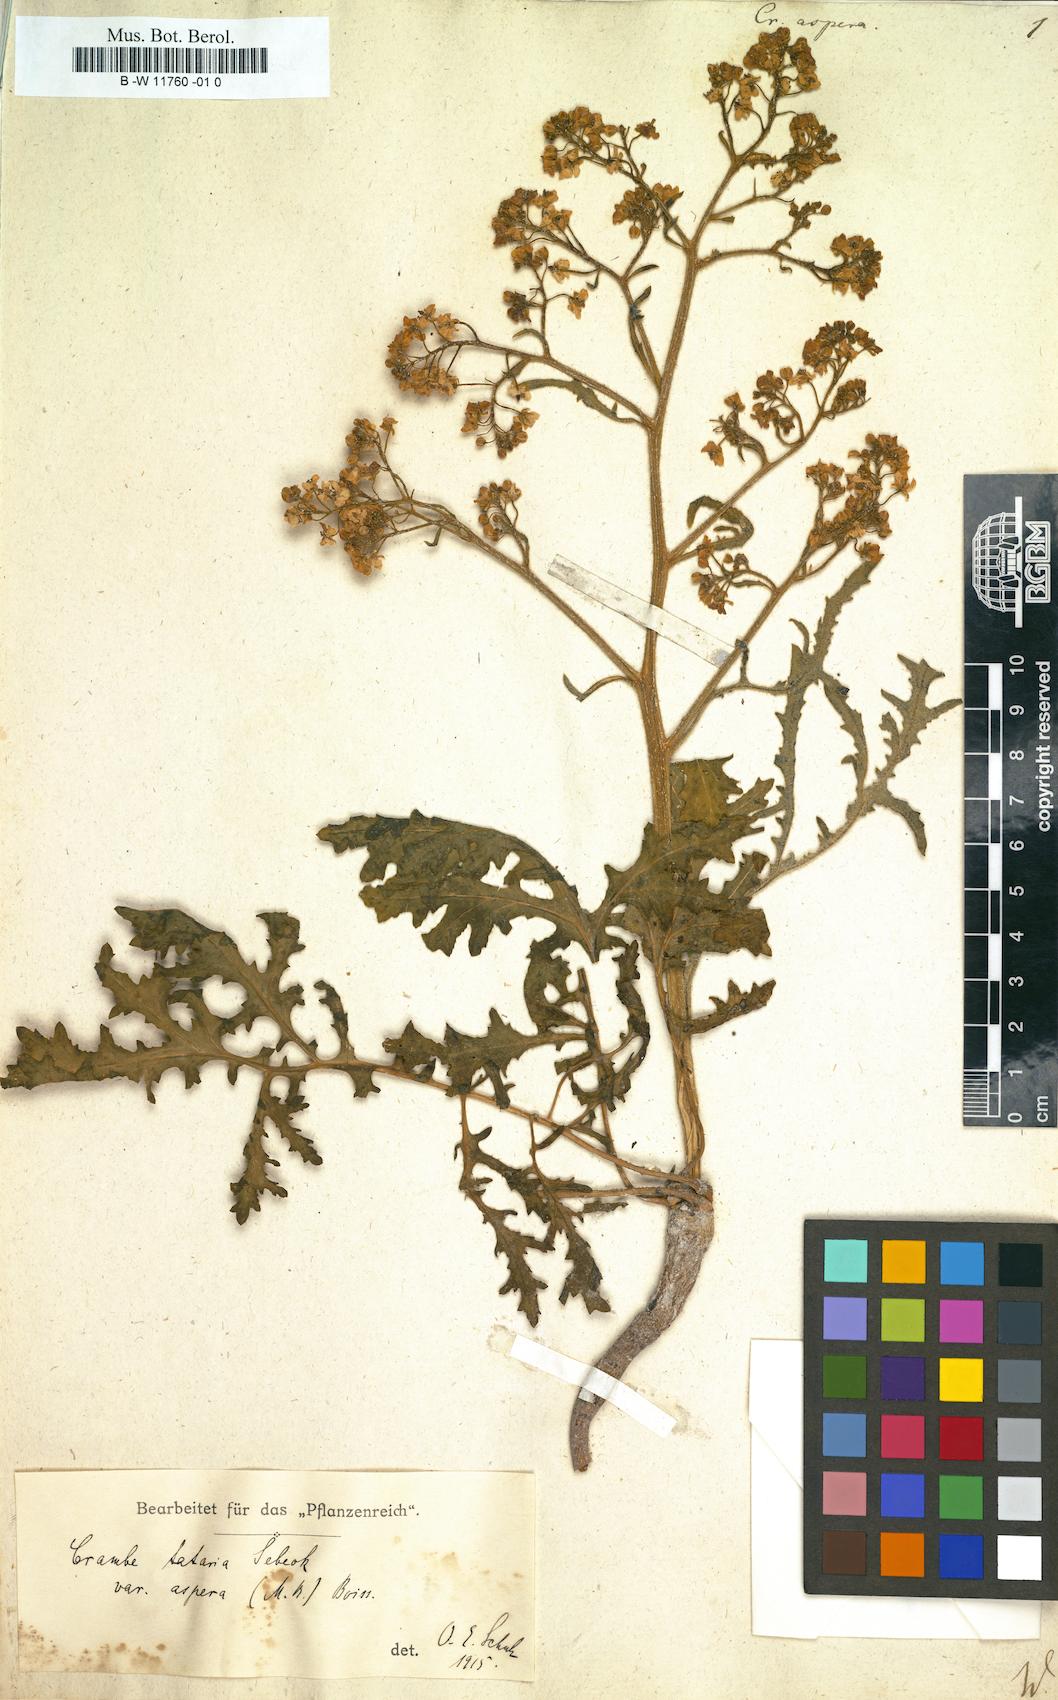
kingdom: Plantae
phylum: Tracheophyta
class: Magnoliopsida
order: Brassicales
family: Brassicaceae
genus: Crambe
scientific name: Crambe aspera
